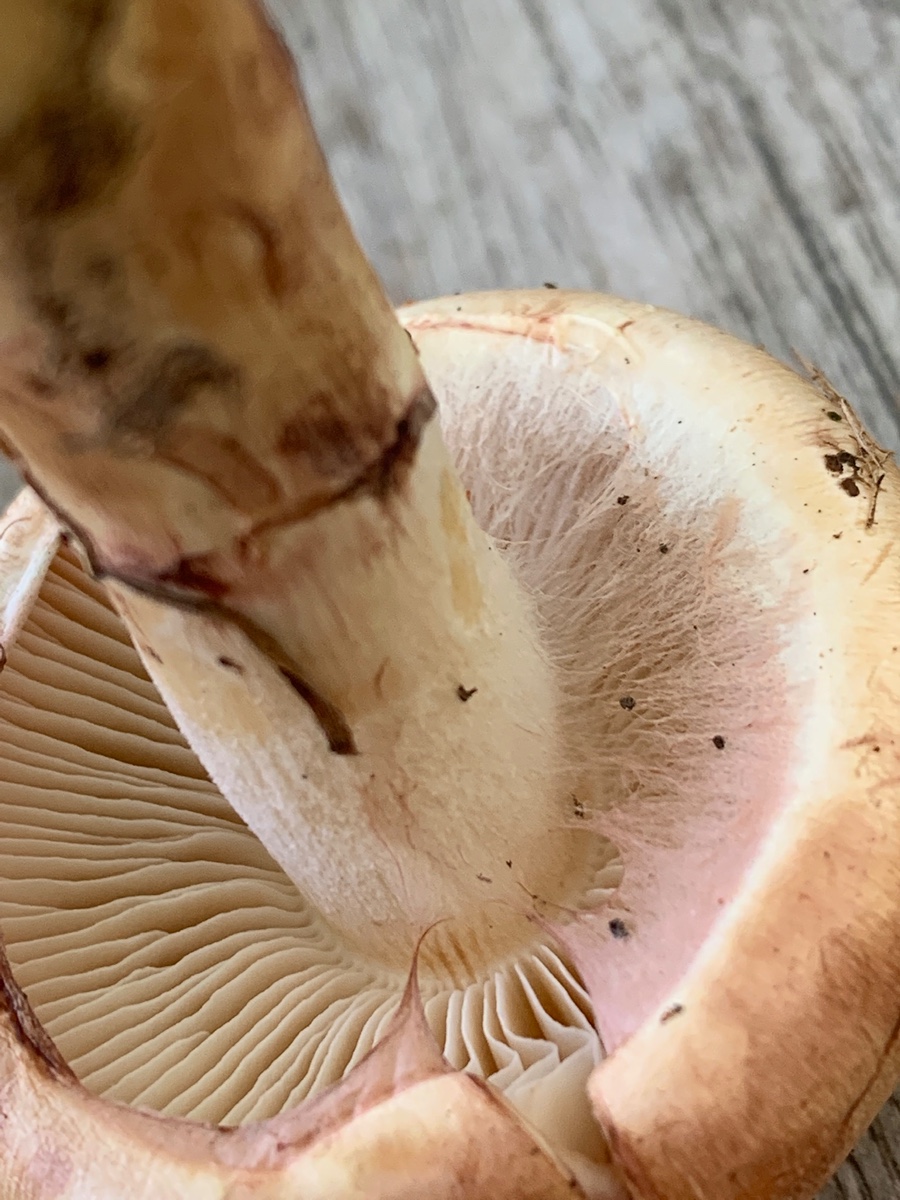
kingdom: Fungi
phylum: Basidiomycota
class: Agaricomycetes
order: Agaricales
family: Cortinariaceae
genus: Phlegmacium
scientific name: Phlegmacium argutum
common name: hvidlig slørhat
